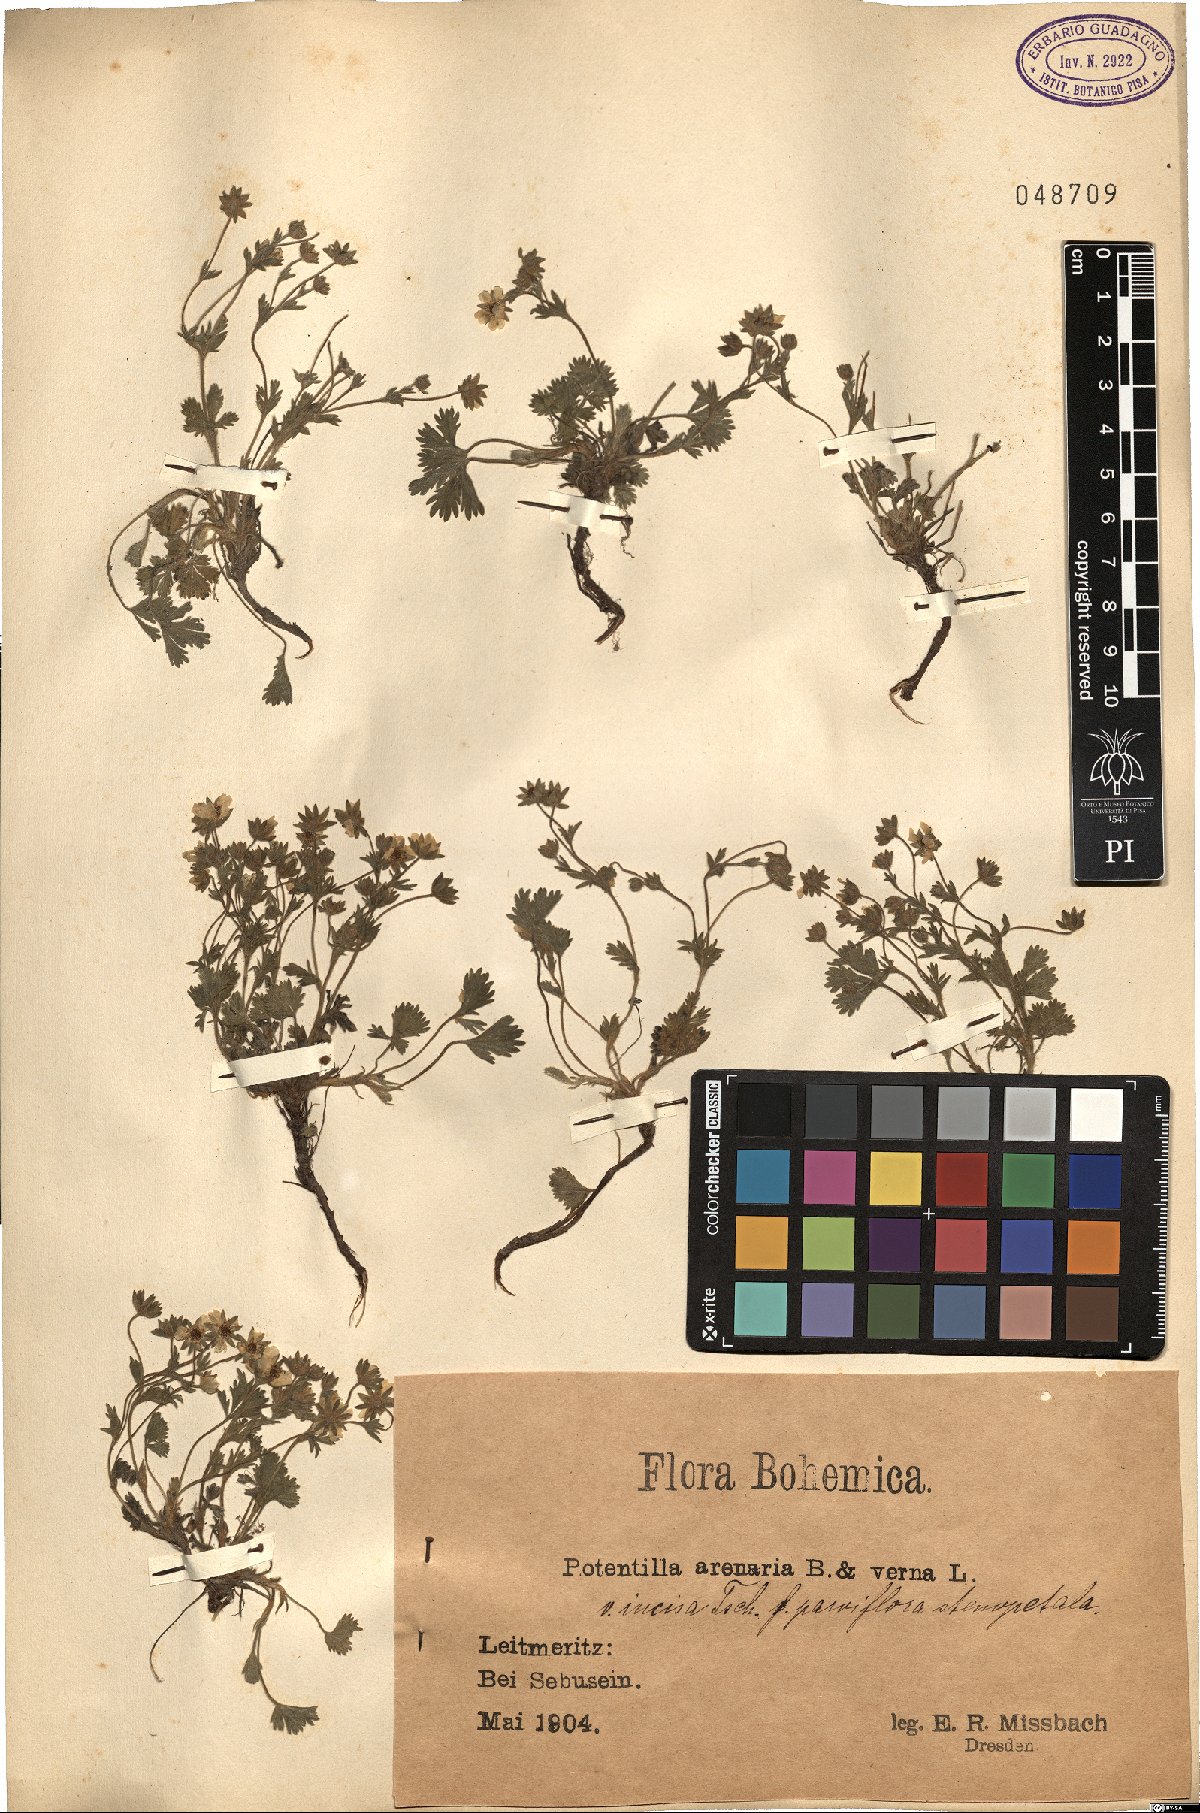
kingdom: Plantae
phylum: Tracheophyta
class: Magnoliopsida
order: Rosales
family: Rosaceae
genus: Potentilla
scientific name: Potentilla cinerea
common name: Ashy cinquefoil
